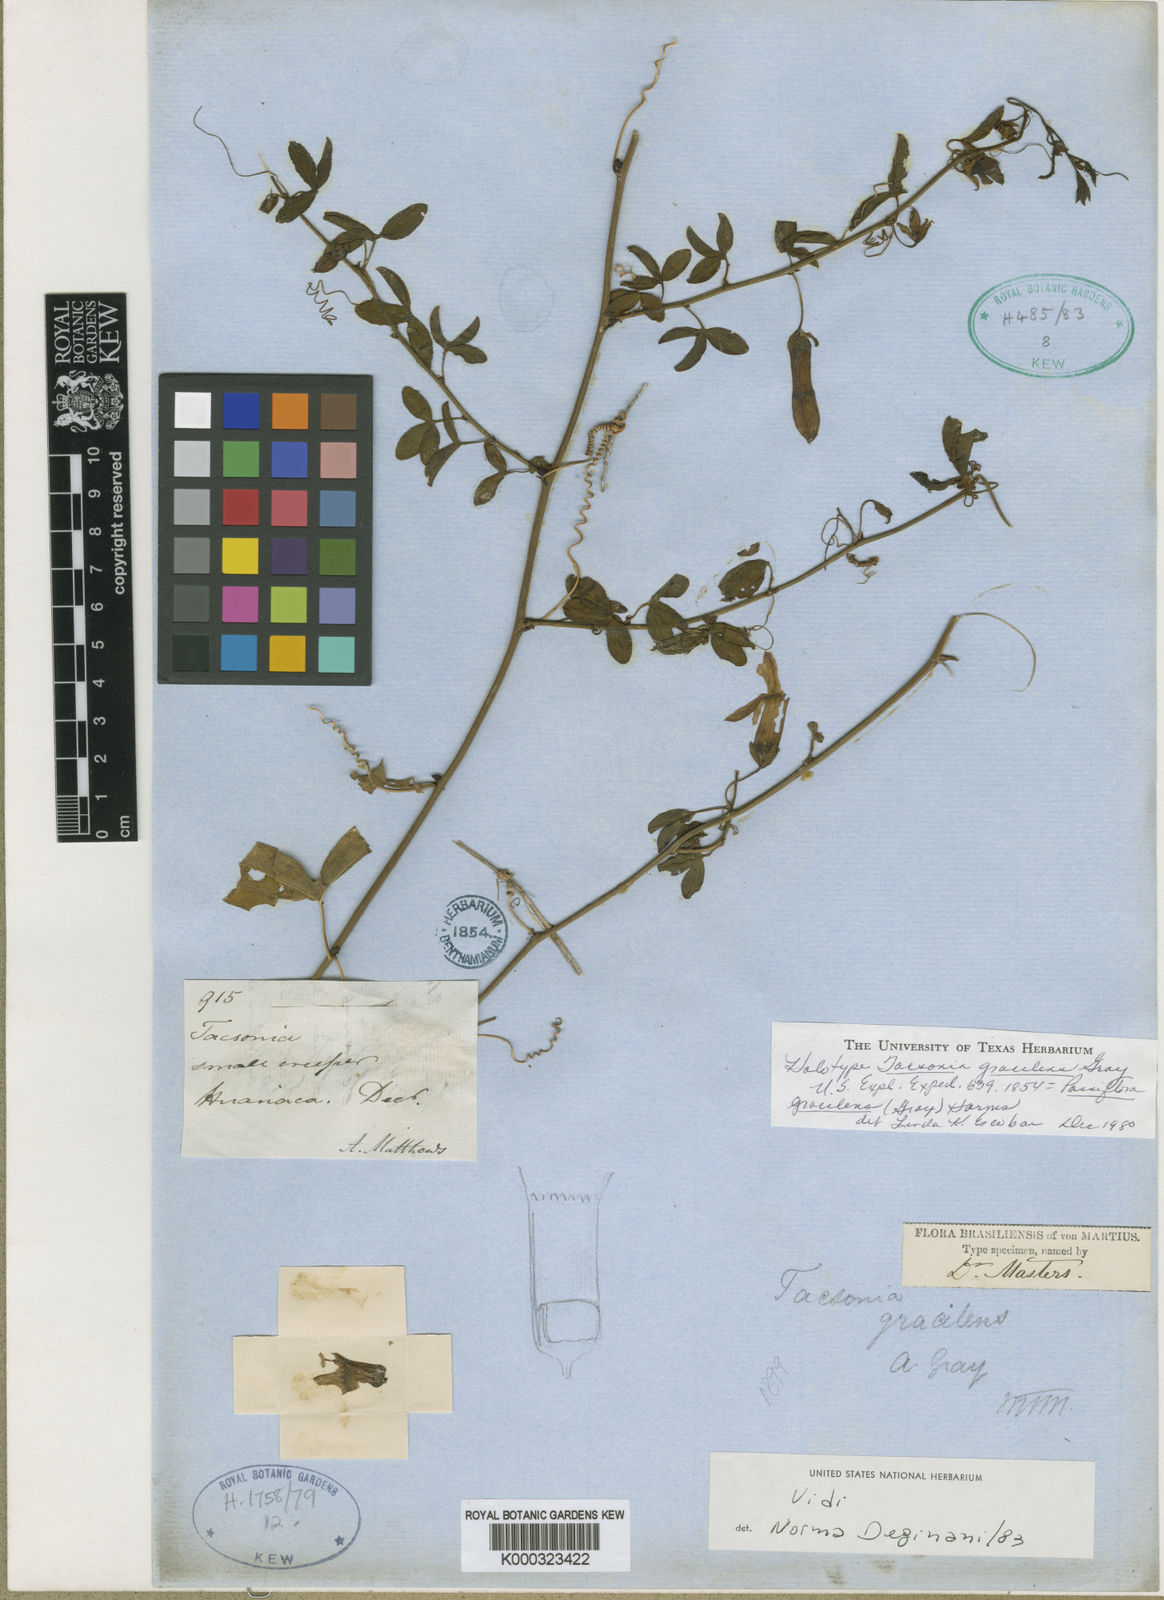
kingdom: Plantae
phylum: Tracheophyta
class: Magnoliopsida
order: Malpighiales
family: Passifloraceae
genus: Passiflora
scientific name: Passiflora gracilens
